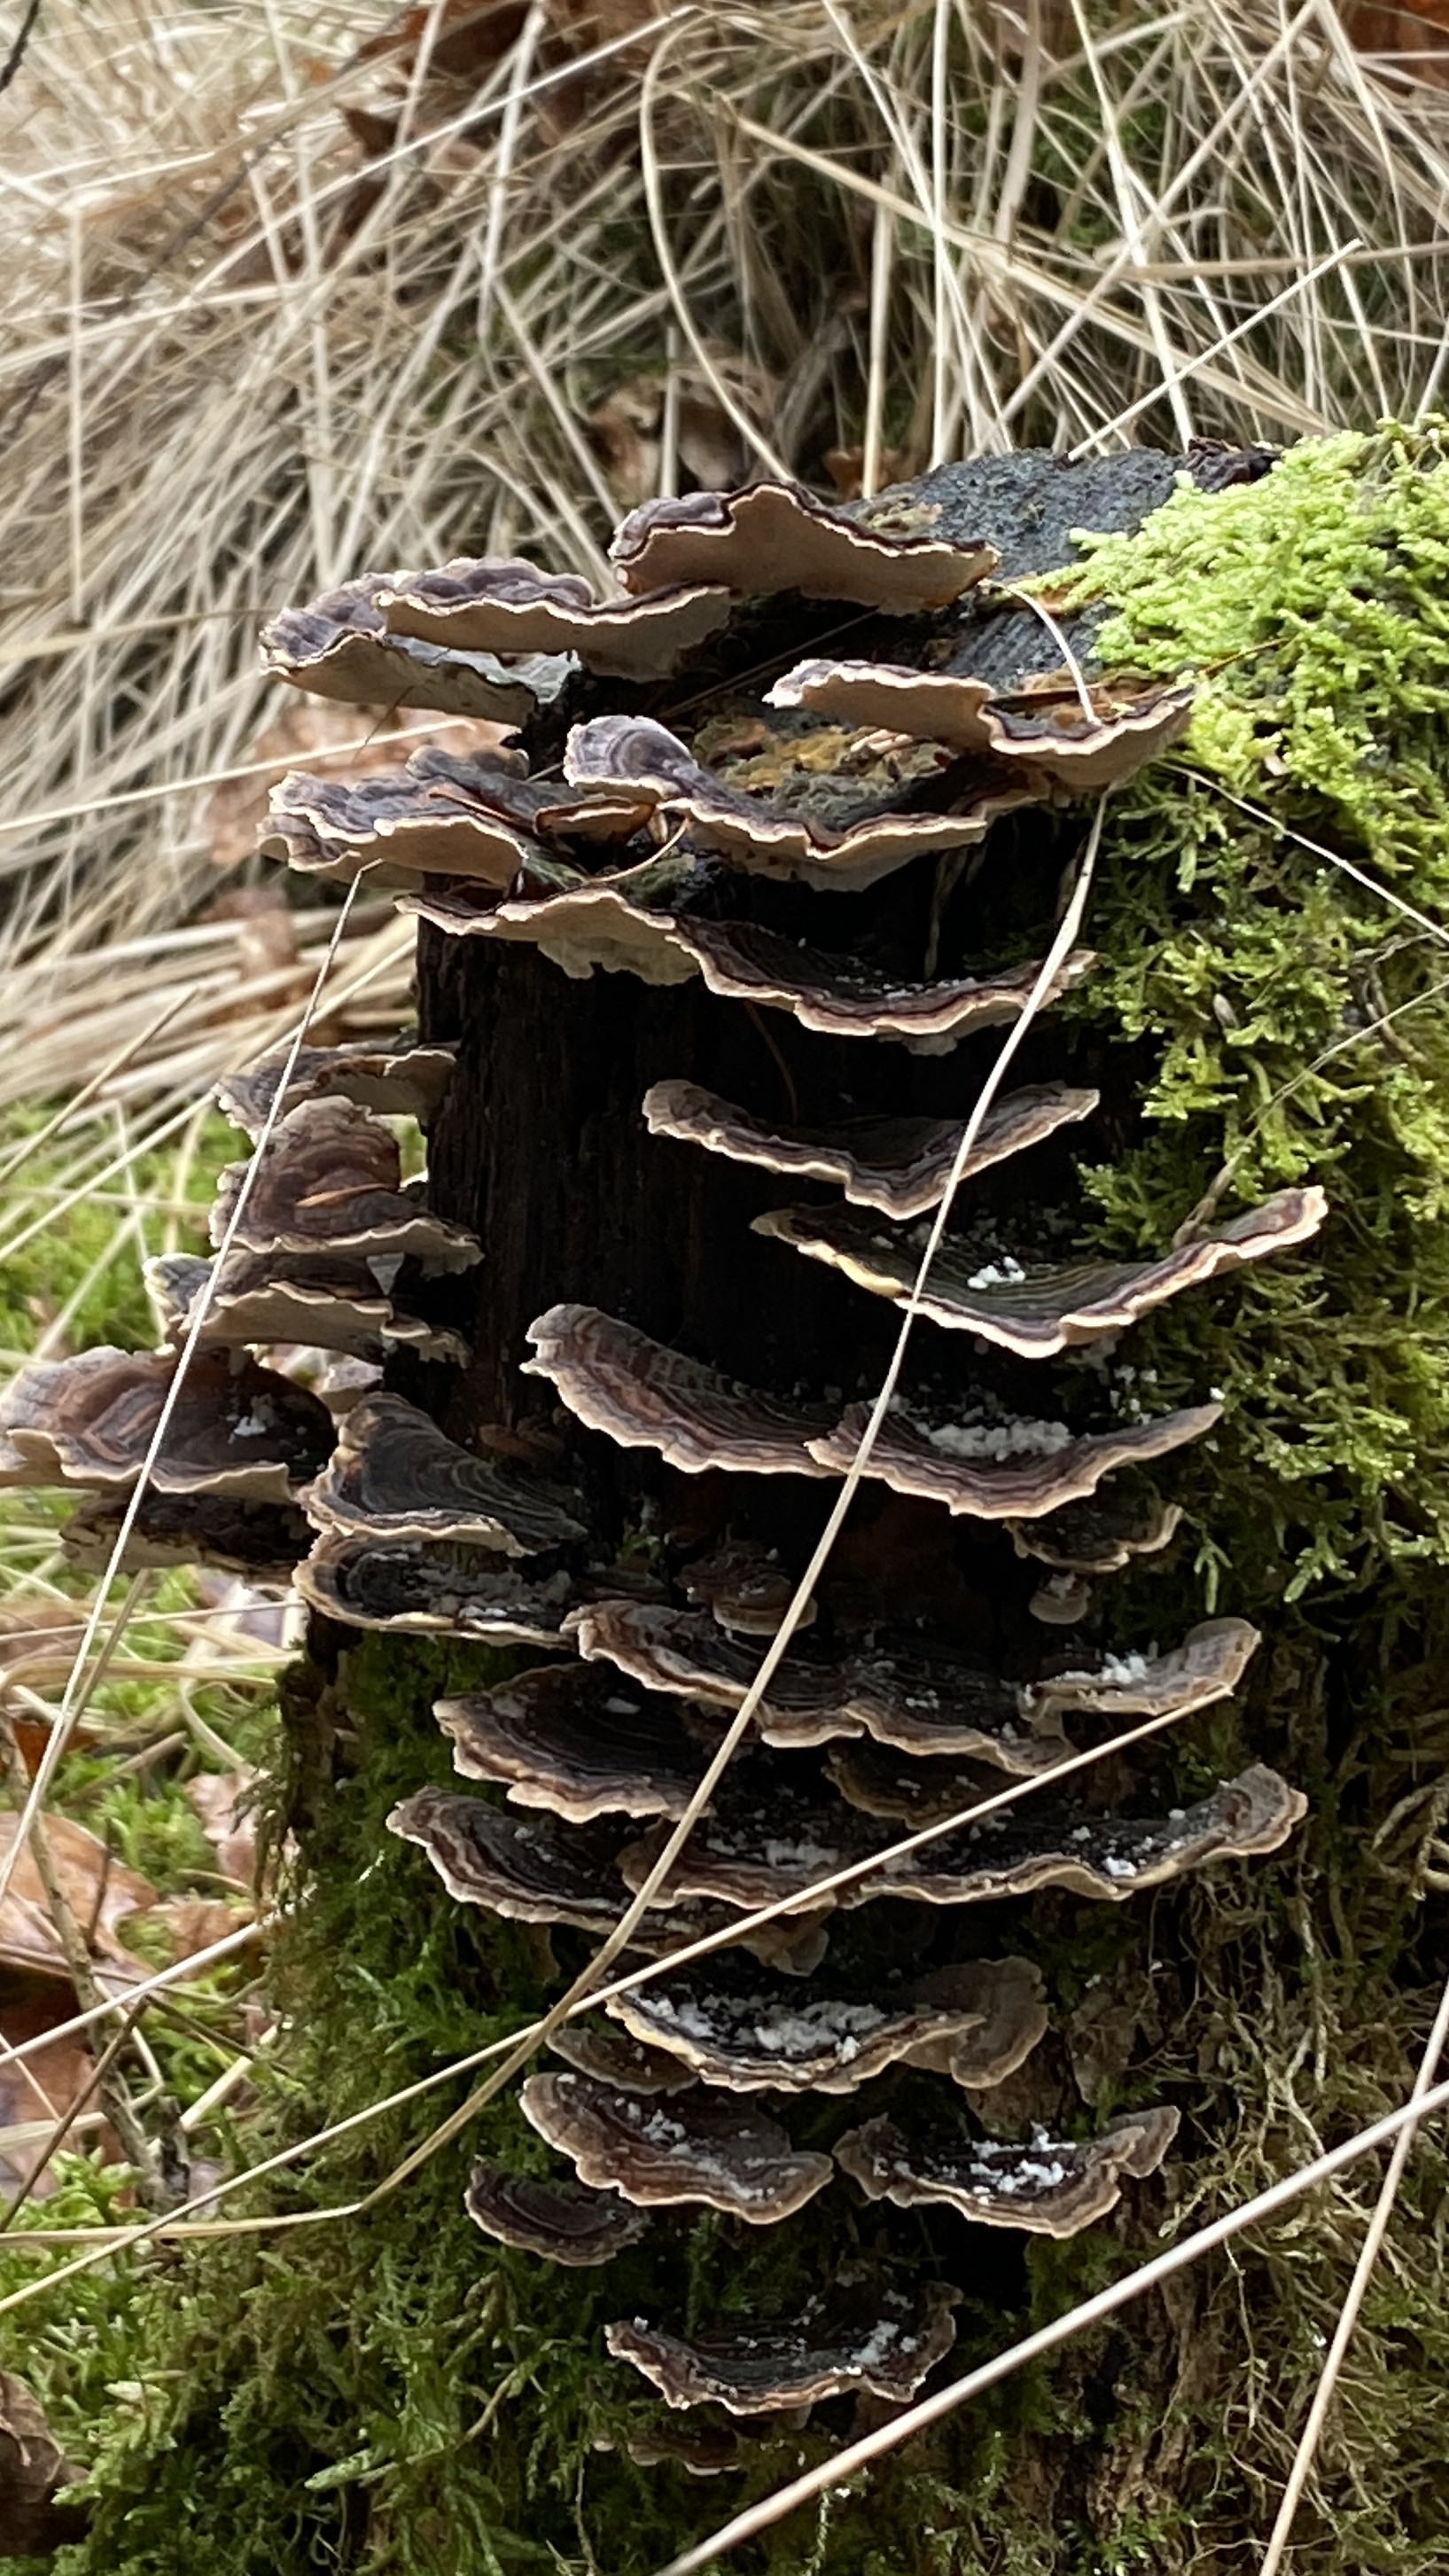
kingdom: Fungi
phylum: Basidiomycota
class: Agaricomycetes
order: Polyporales
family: Polyporaceae
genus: Trametes
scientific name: Trametes versicolor
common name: broget læderporesvamp
